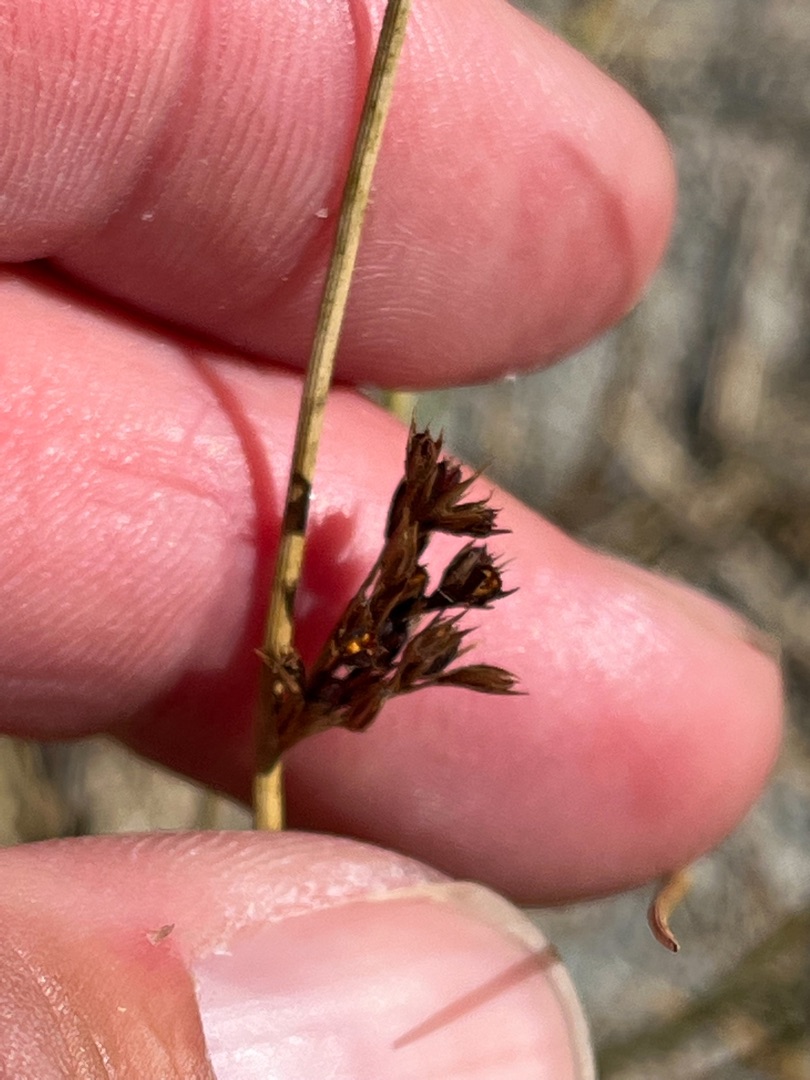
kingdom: Plantae
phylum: Tracheophyta
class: Liliopsida
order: Poales
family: Juncaceae
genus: Juncus
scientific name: Juncus inflexus
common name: Blågrå siv
